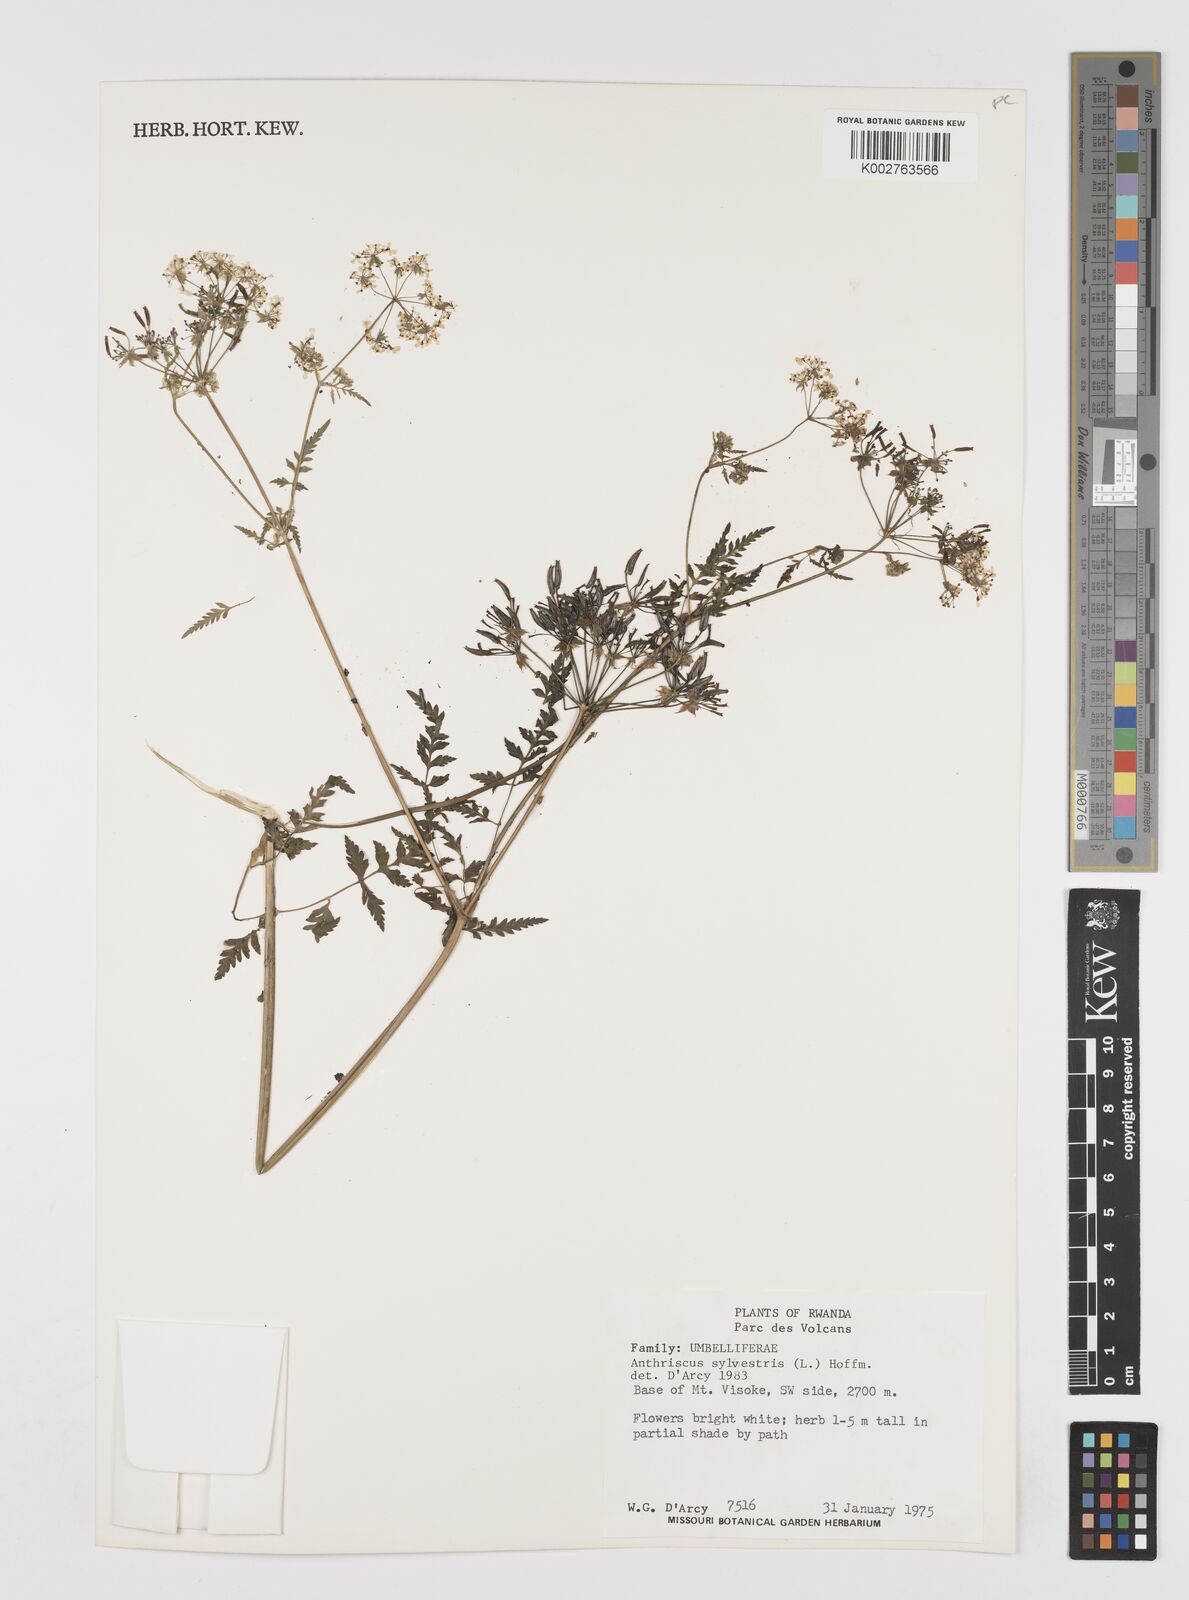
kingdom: Plantae
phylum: Tracheophyta
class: Magnoliopsida
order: Apiales
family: Apiaceae
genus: Anthriscus
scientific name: Anthriscus sylvestris
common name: Cow parsley
